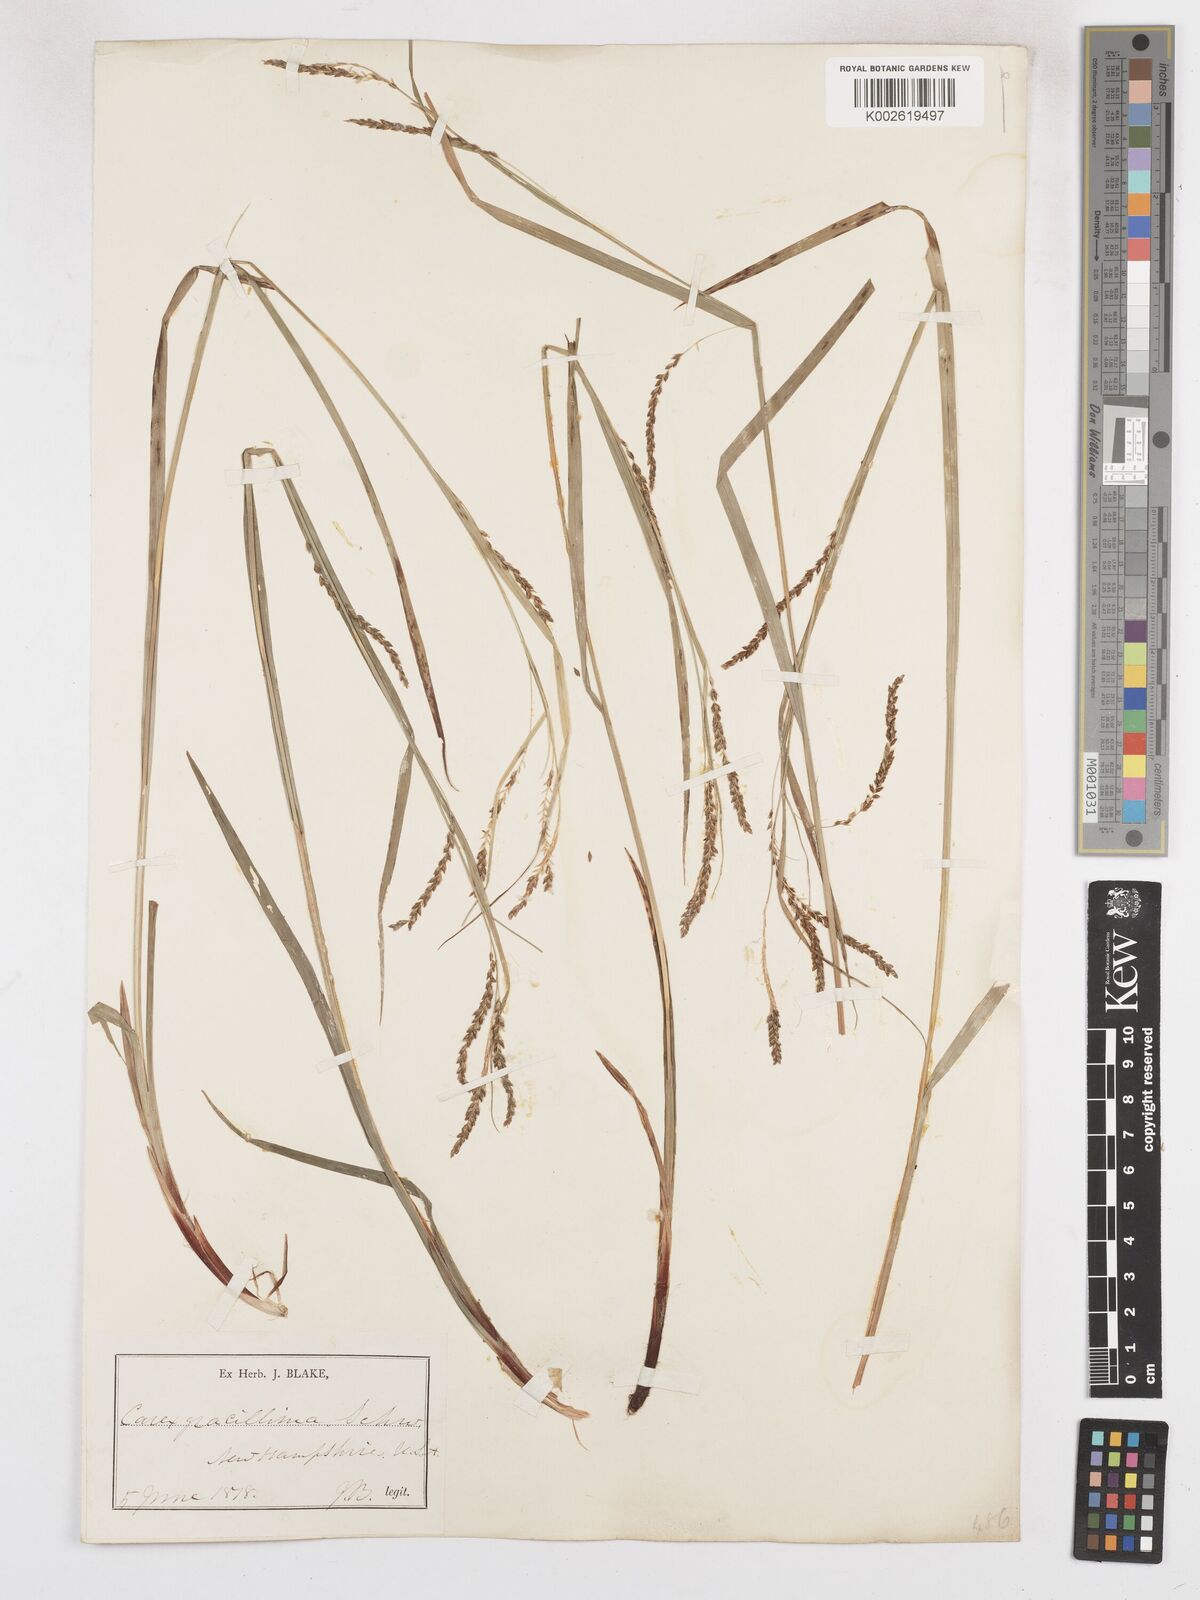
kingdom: Plantae
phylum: Tracheophyta
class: Liliopsida
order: Poales
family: Cyperaceae
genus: Carex
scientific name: Carex gracillima
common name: Graceful sedge
